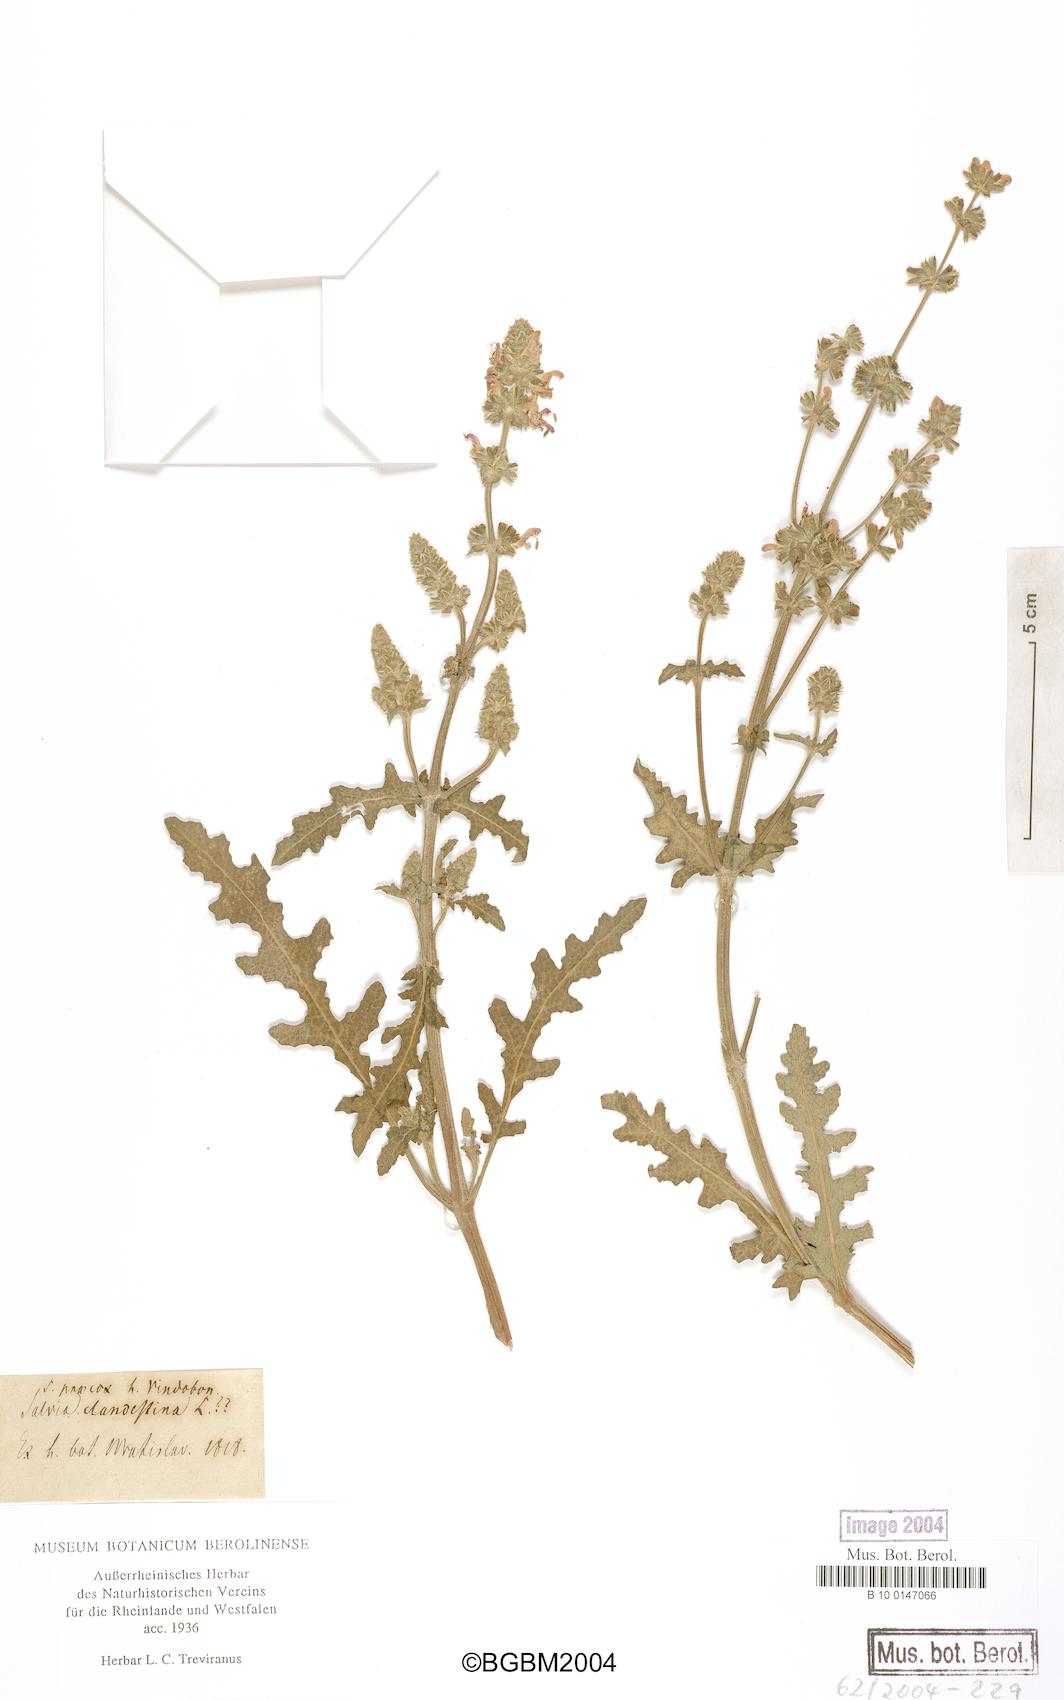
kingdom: Plantae
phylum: Tracheophyta
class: Magnoliopsida
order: Lamiales
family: Lamiaceae
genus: Salvia
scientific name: Salvia verbenaca
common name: Wild clary
